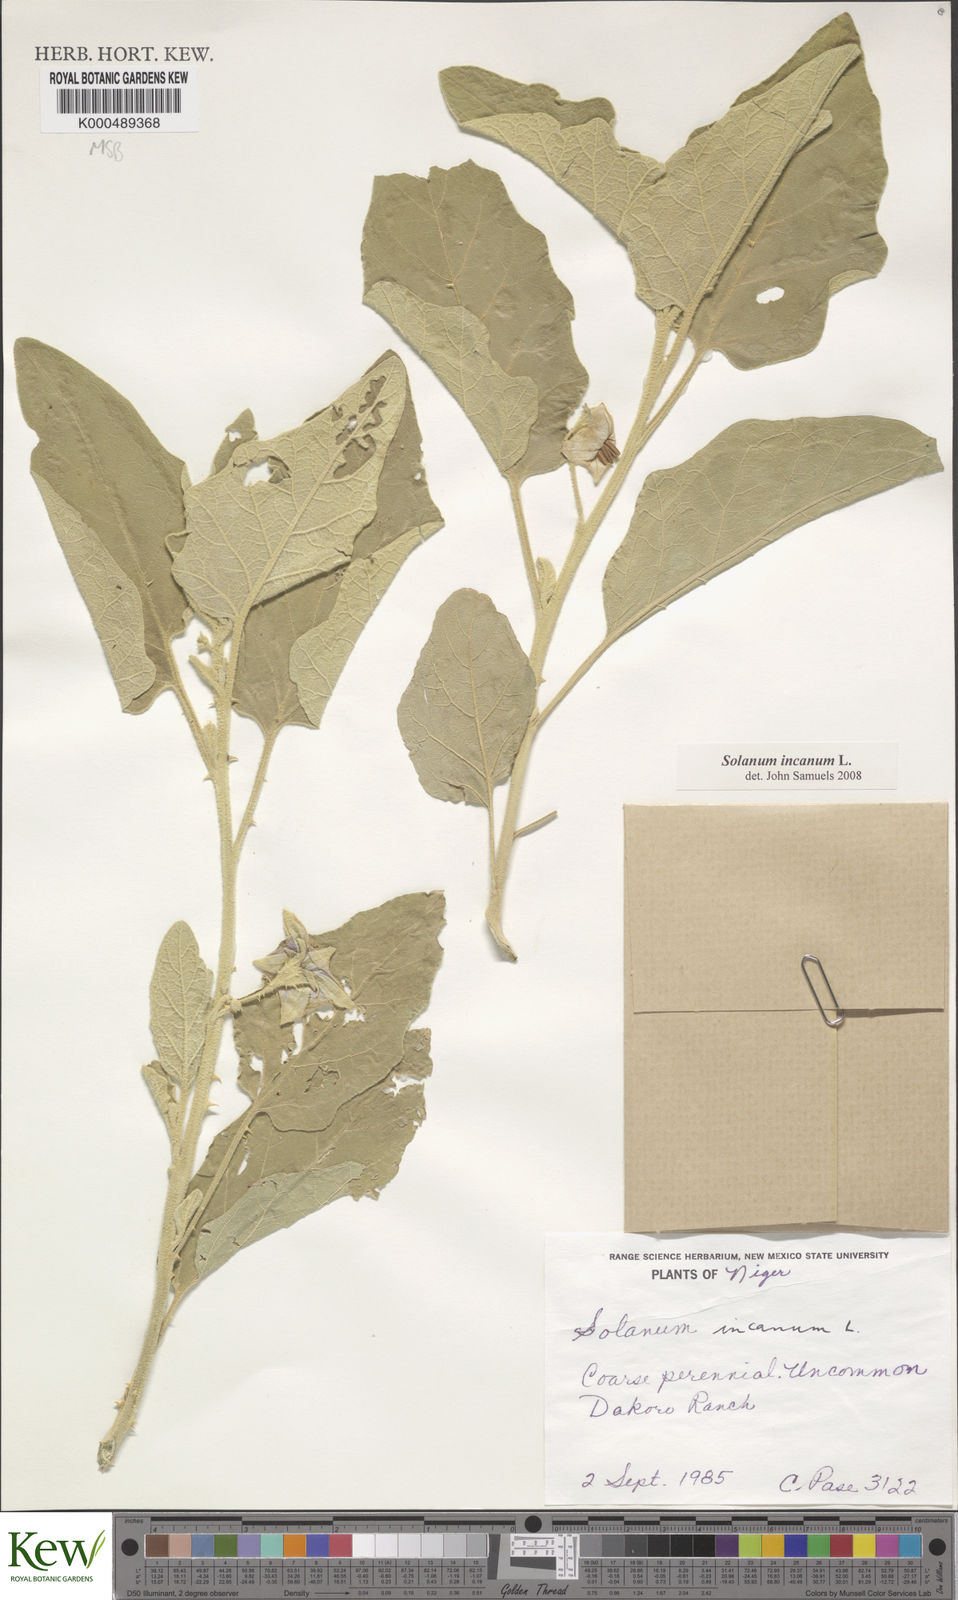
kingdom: Plantae
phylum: Tracheophyta
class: Magnoliopsida
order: Solanales
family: Solanaceae
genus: Solanum
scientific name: Solanum incanum
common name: Bitter apple
